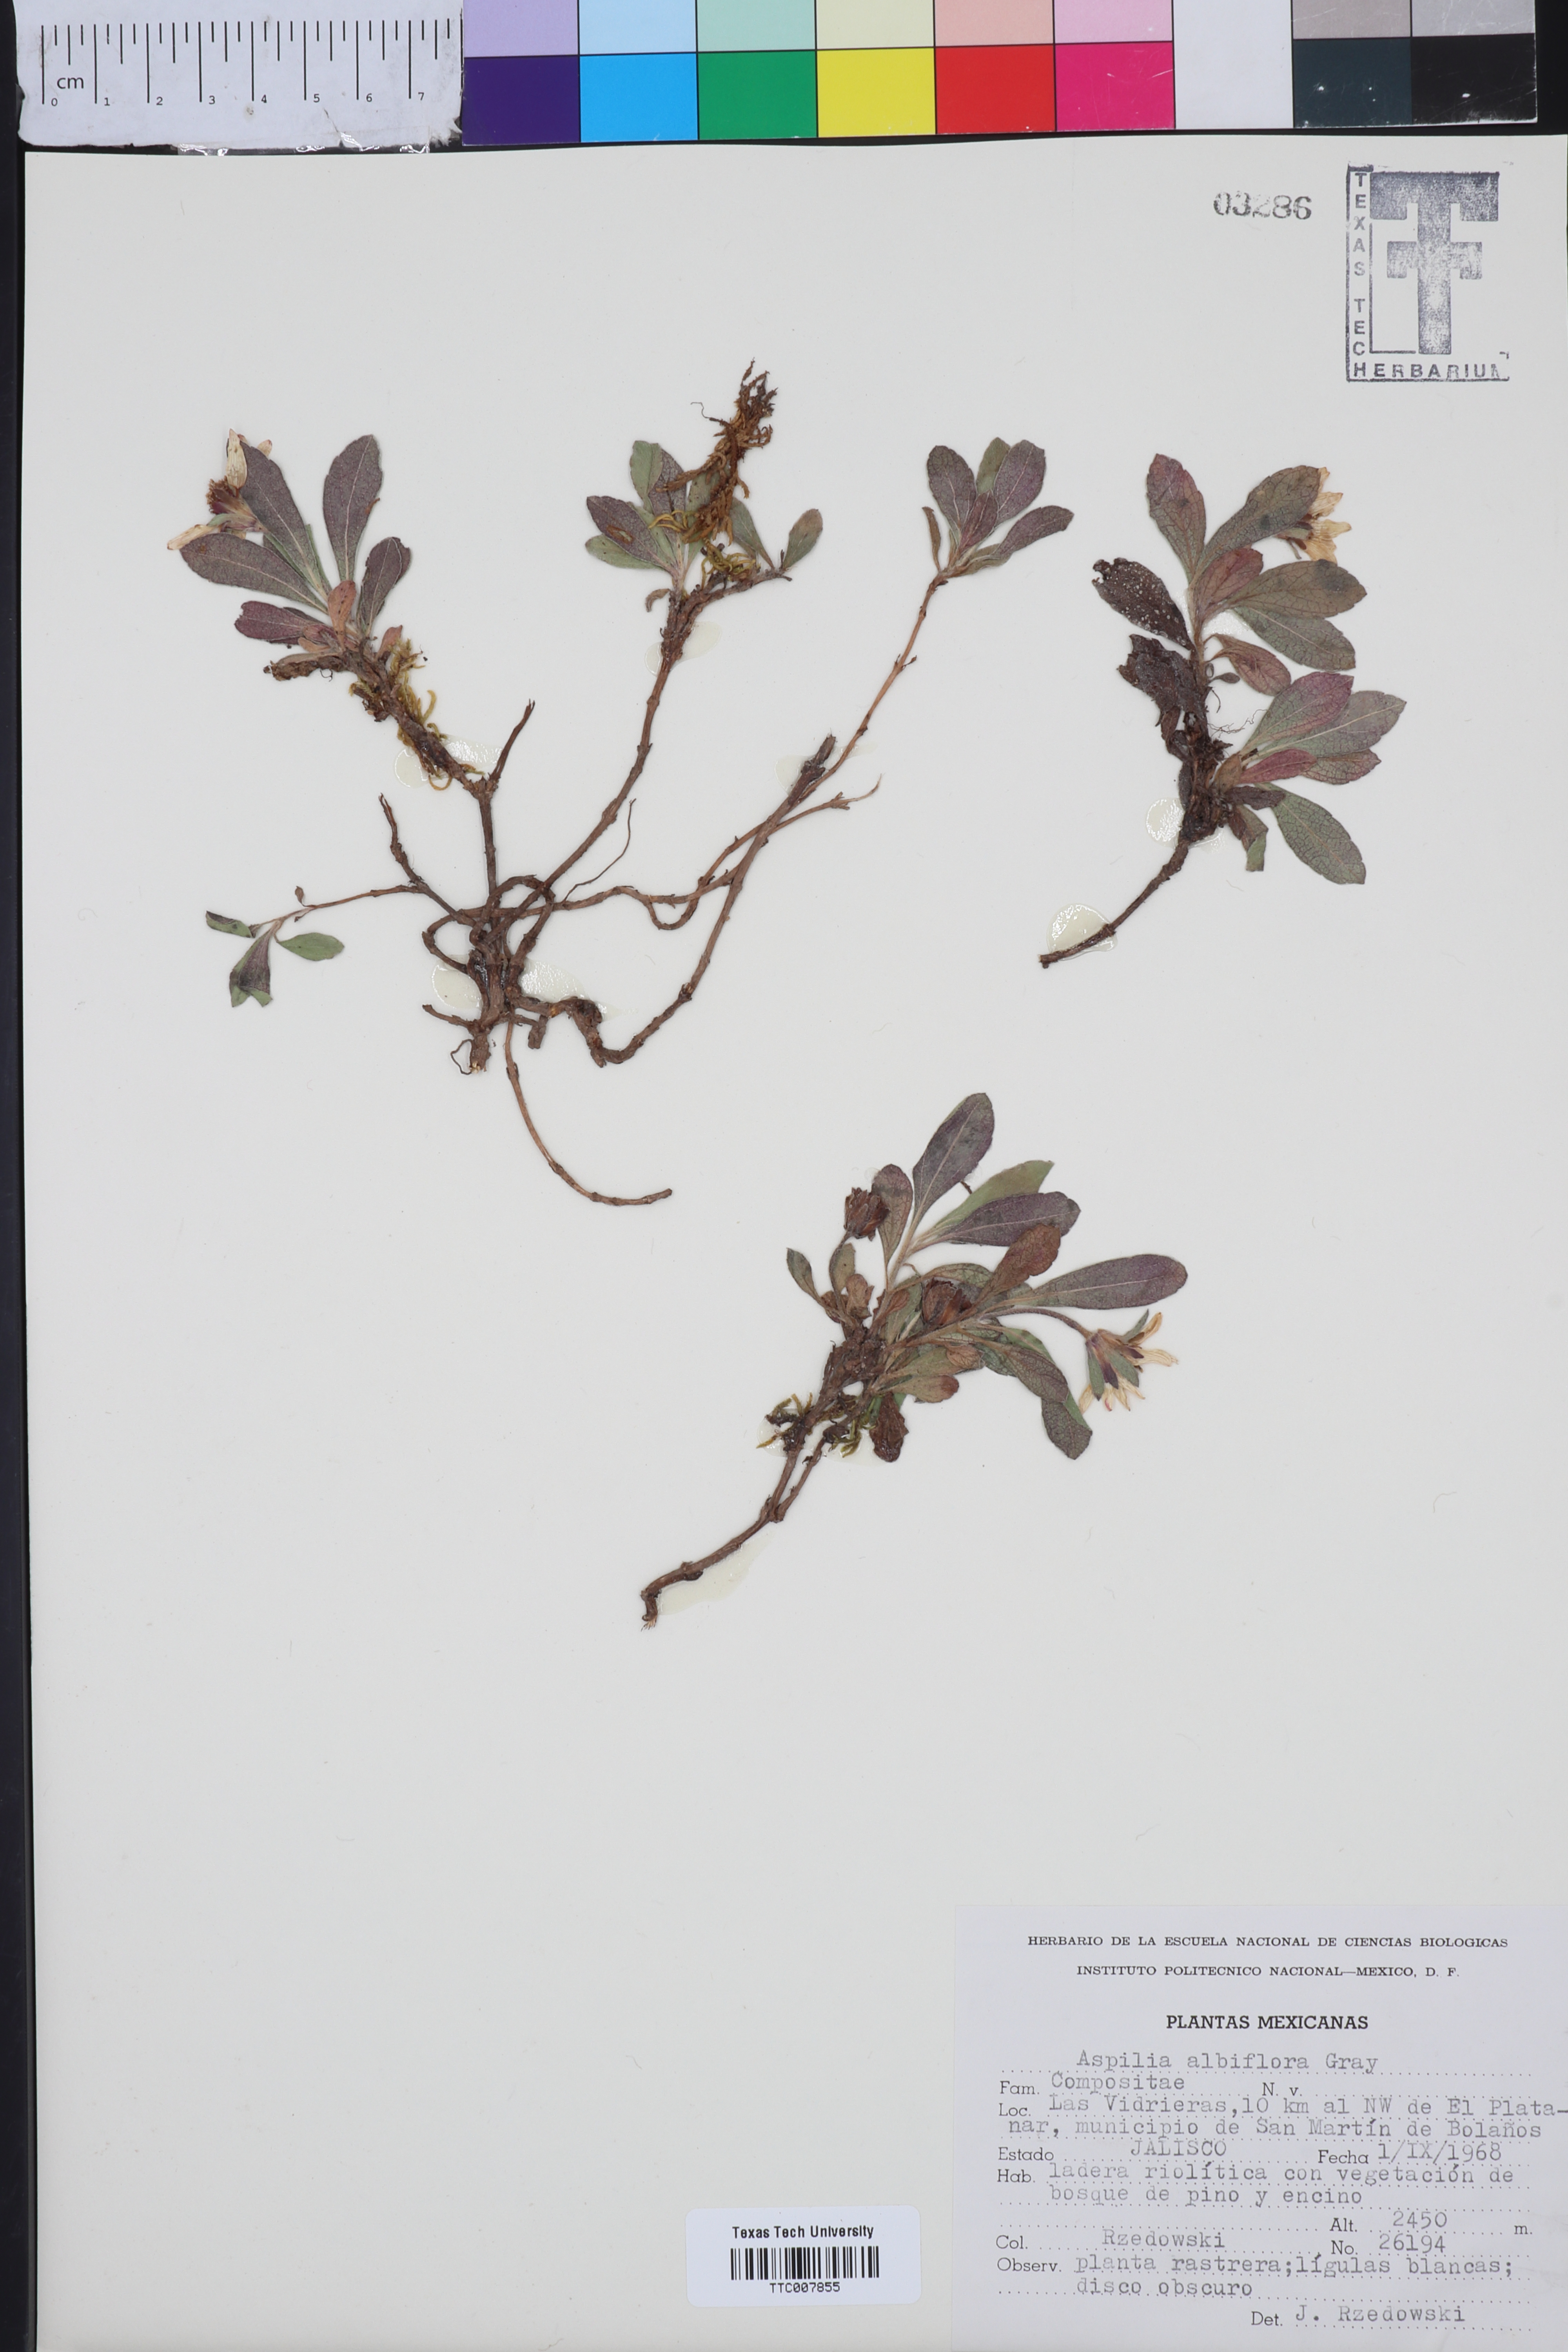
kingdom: Plantae
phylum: Tracheophyta
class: Magnoliopsida
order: Asterales
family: Asteraceae
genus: Wedelia
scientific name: Wedelia grayi
